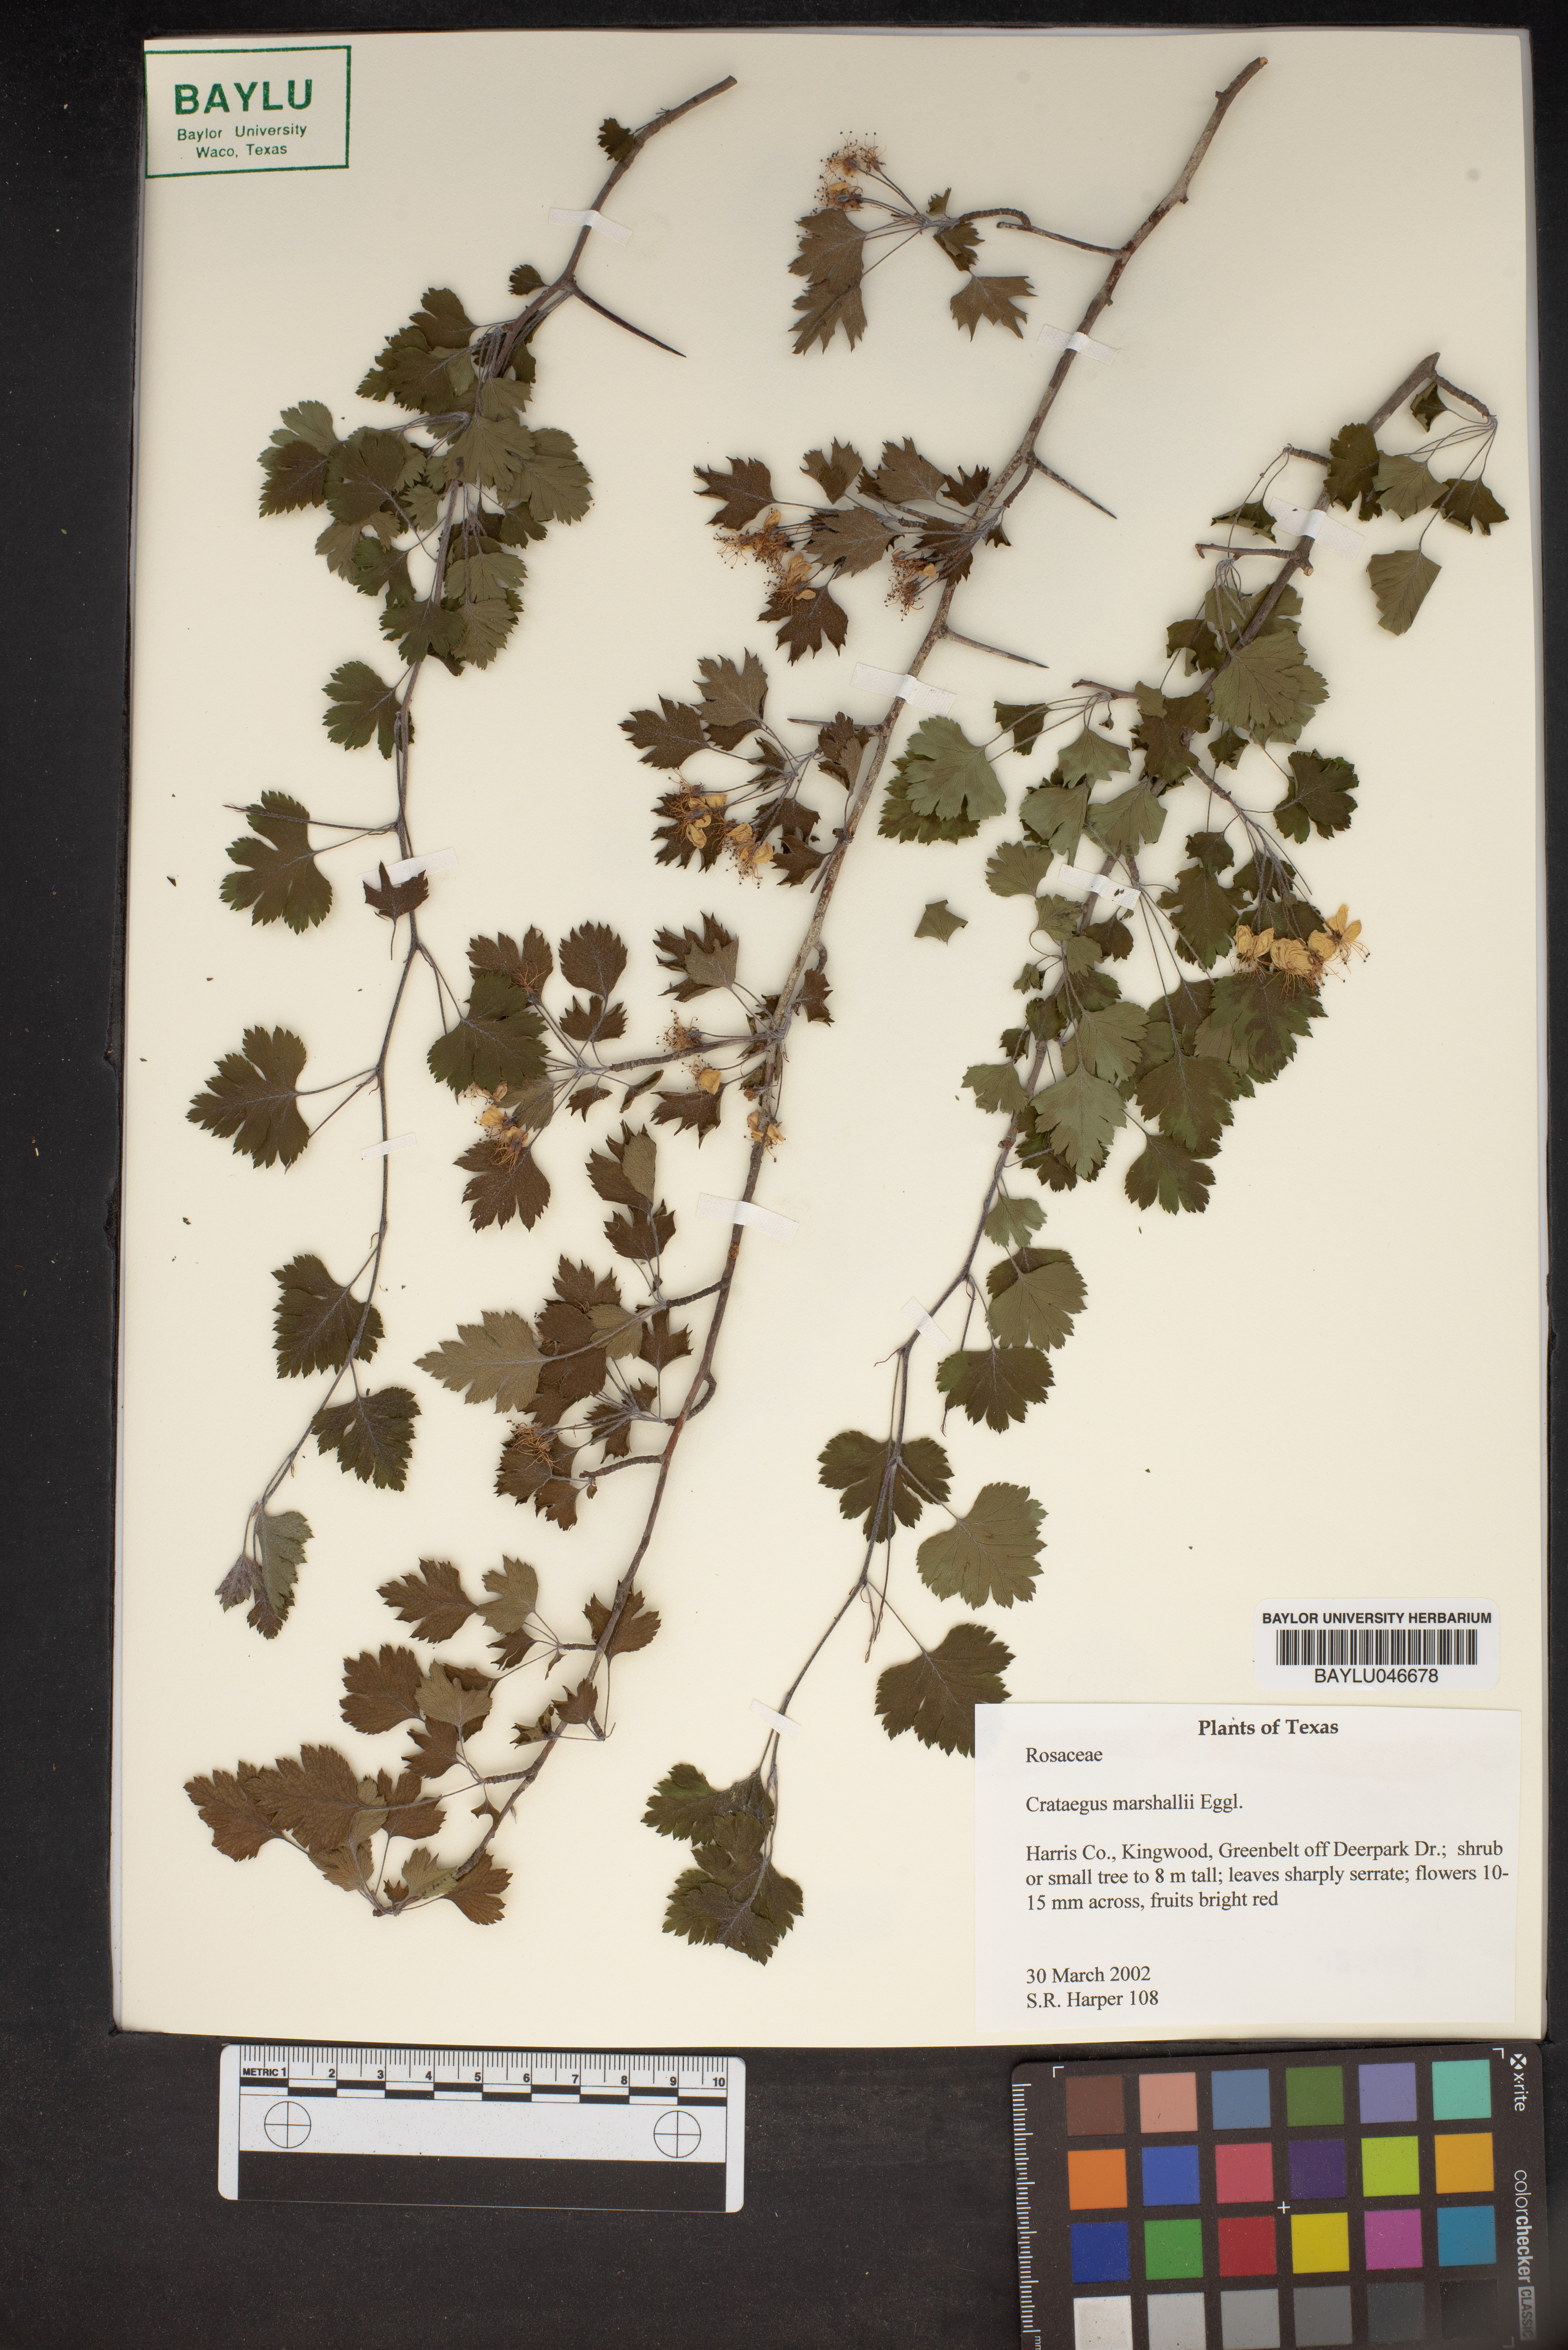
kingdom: Plantae
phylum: Tracheophyta
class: Magnoliopsida
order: Rosales
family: Rosaceae
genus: Crataegus
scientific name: Crataegus marshallii
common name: Parsley-hawthorn
